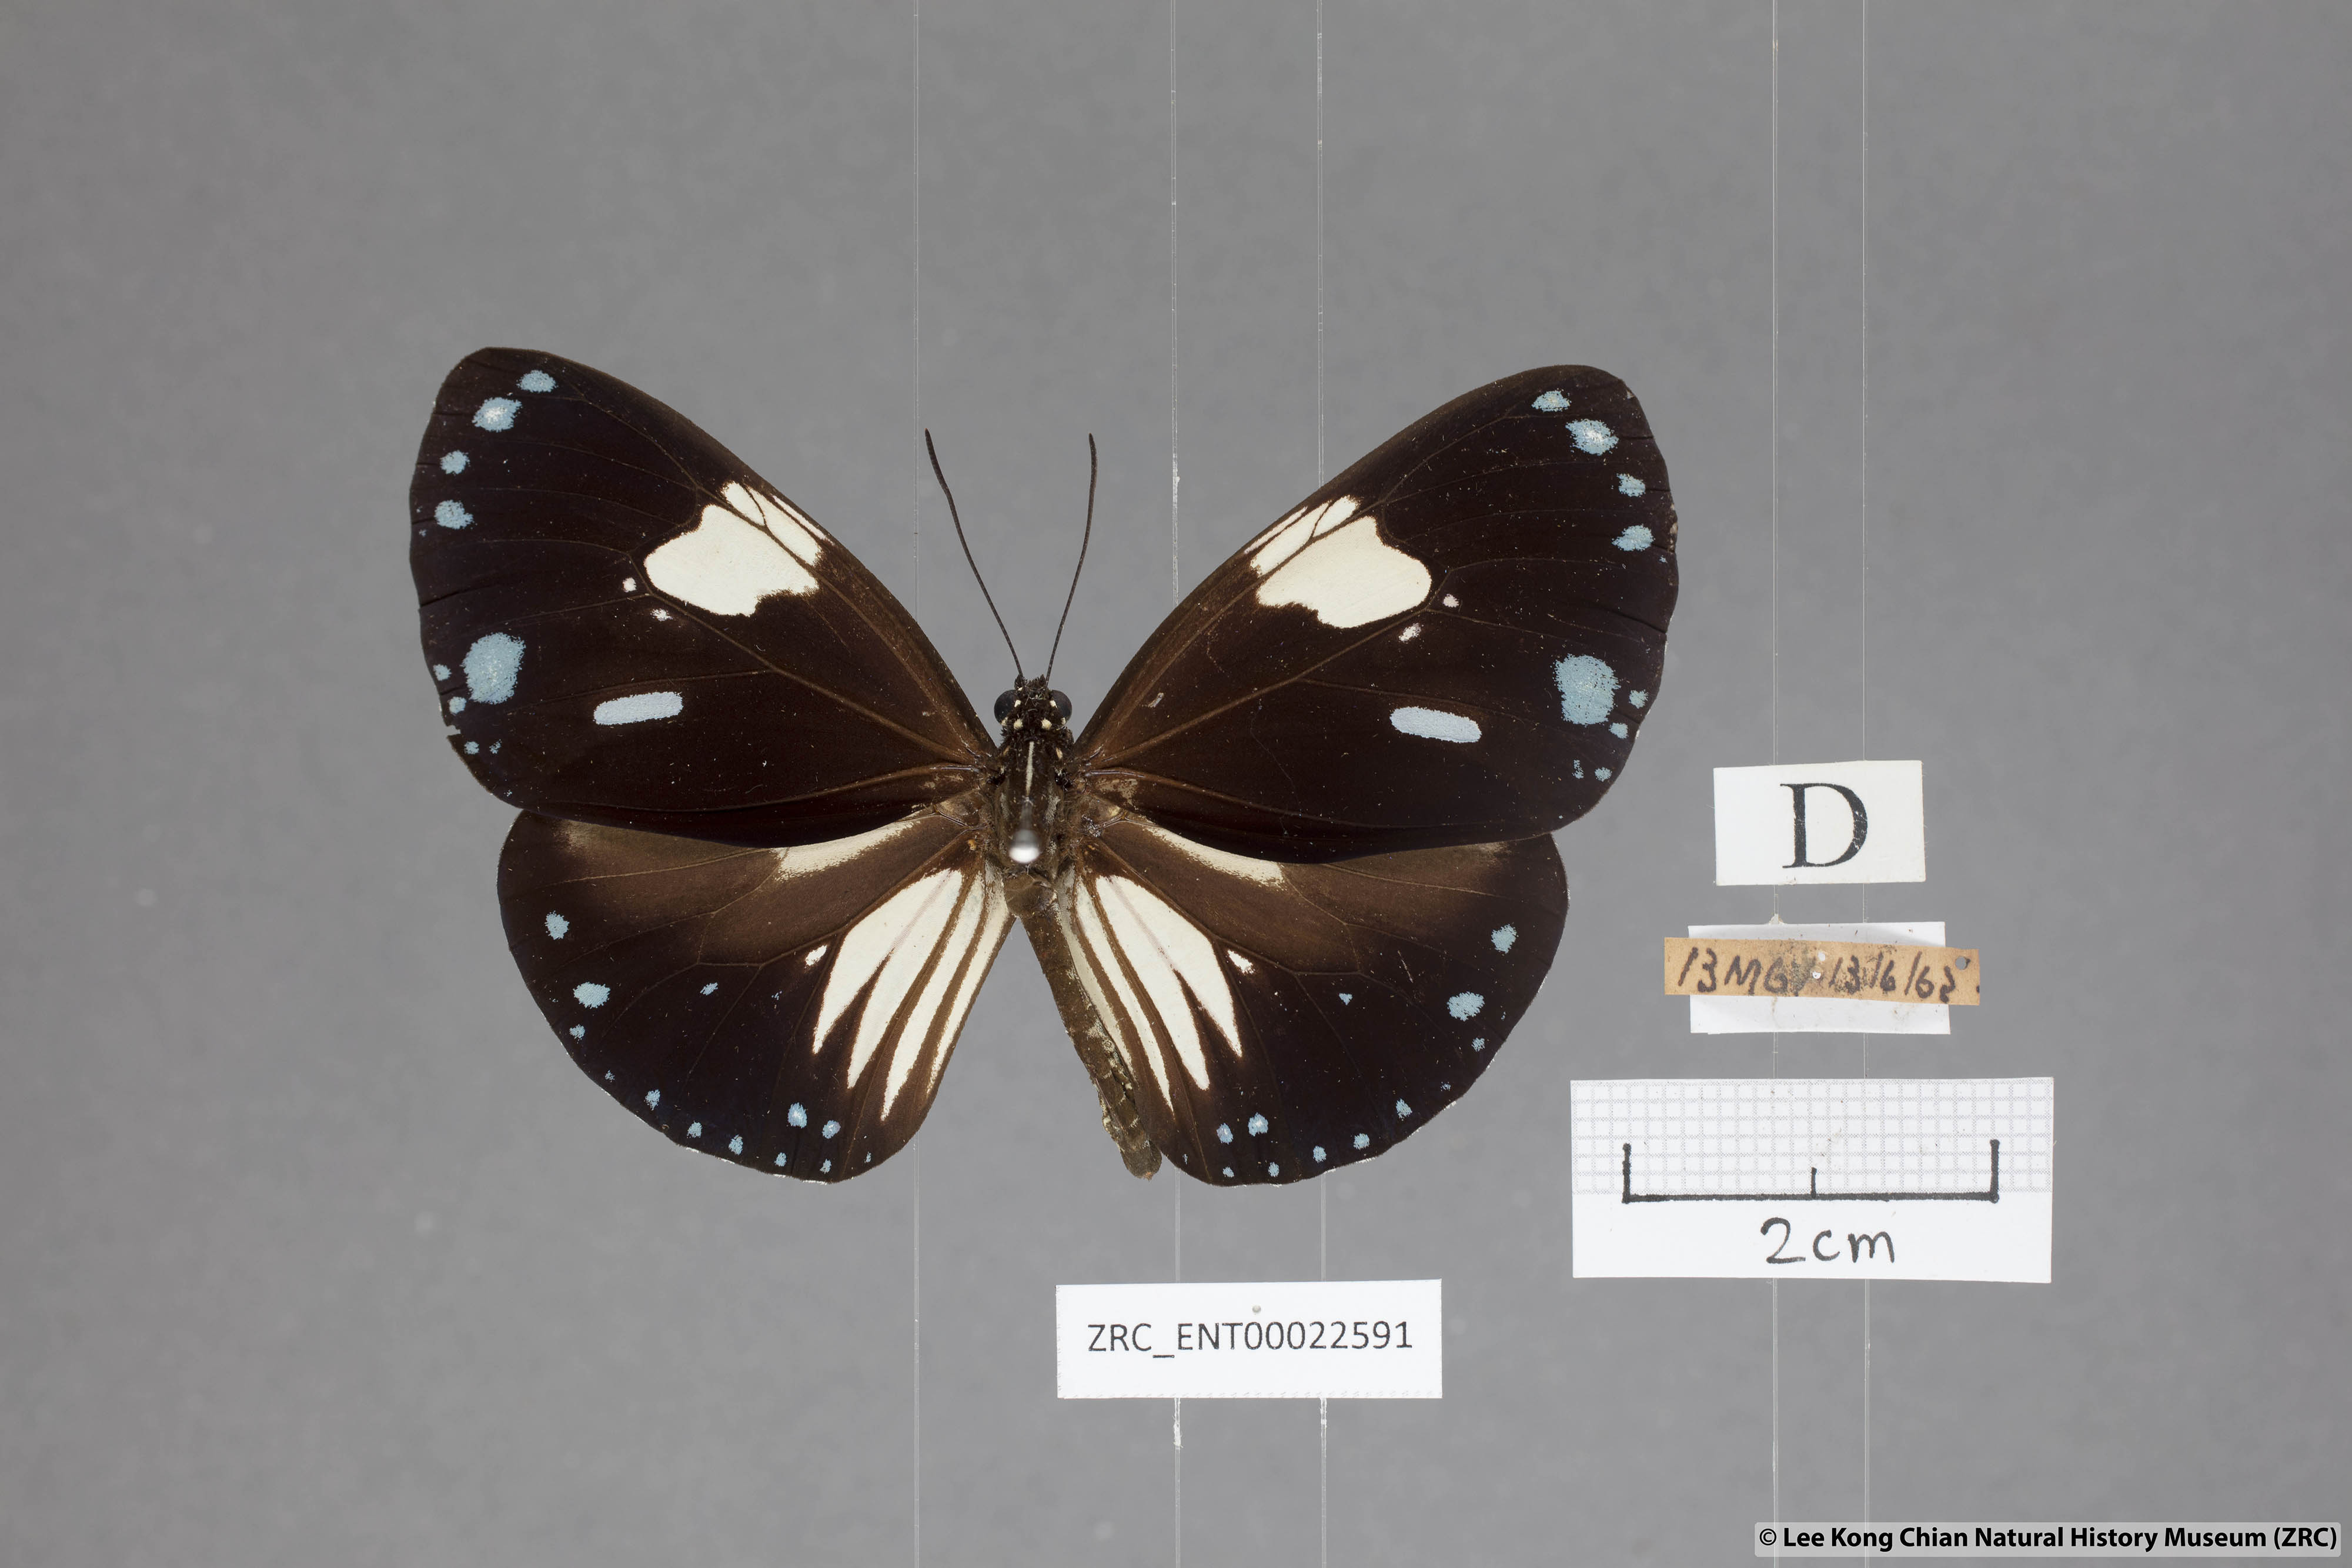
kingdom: Animalia
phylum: Arthropoda
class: Insecta
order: Lepidoptera
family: Nymphalidae
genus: Euploea
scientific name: Euploea diocletia
